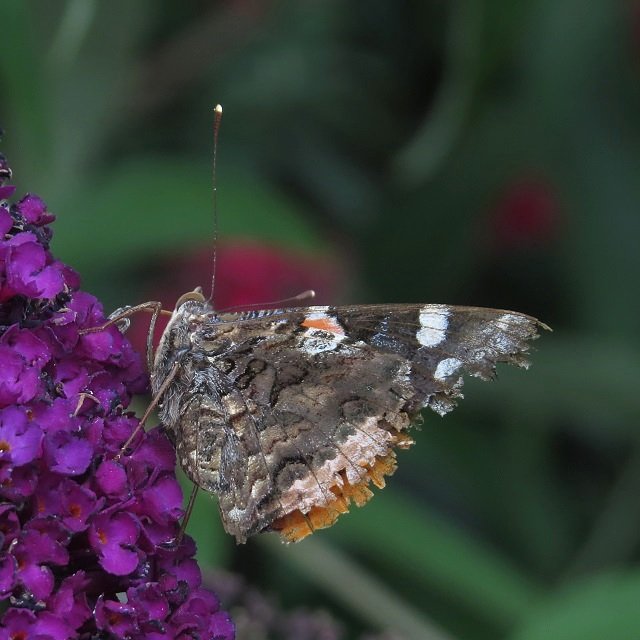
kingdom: Animalia
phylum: Arthropoda
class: Insecta
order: Lepidoptera
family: Nymphalidae
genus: Vanessa
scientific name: Vanessa atalanta
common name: Red Admiral
